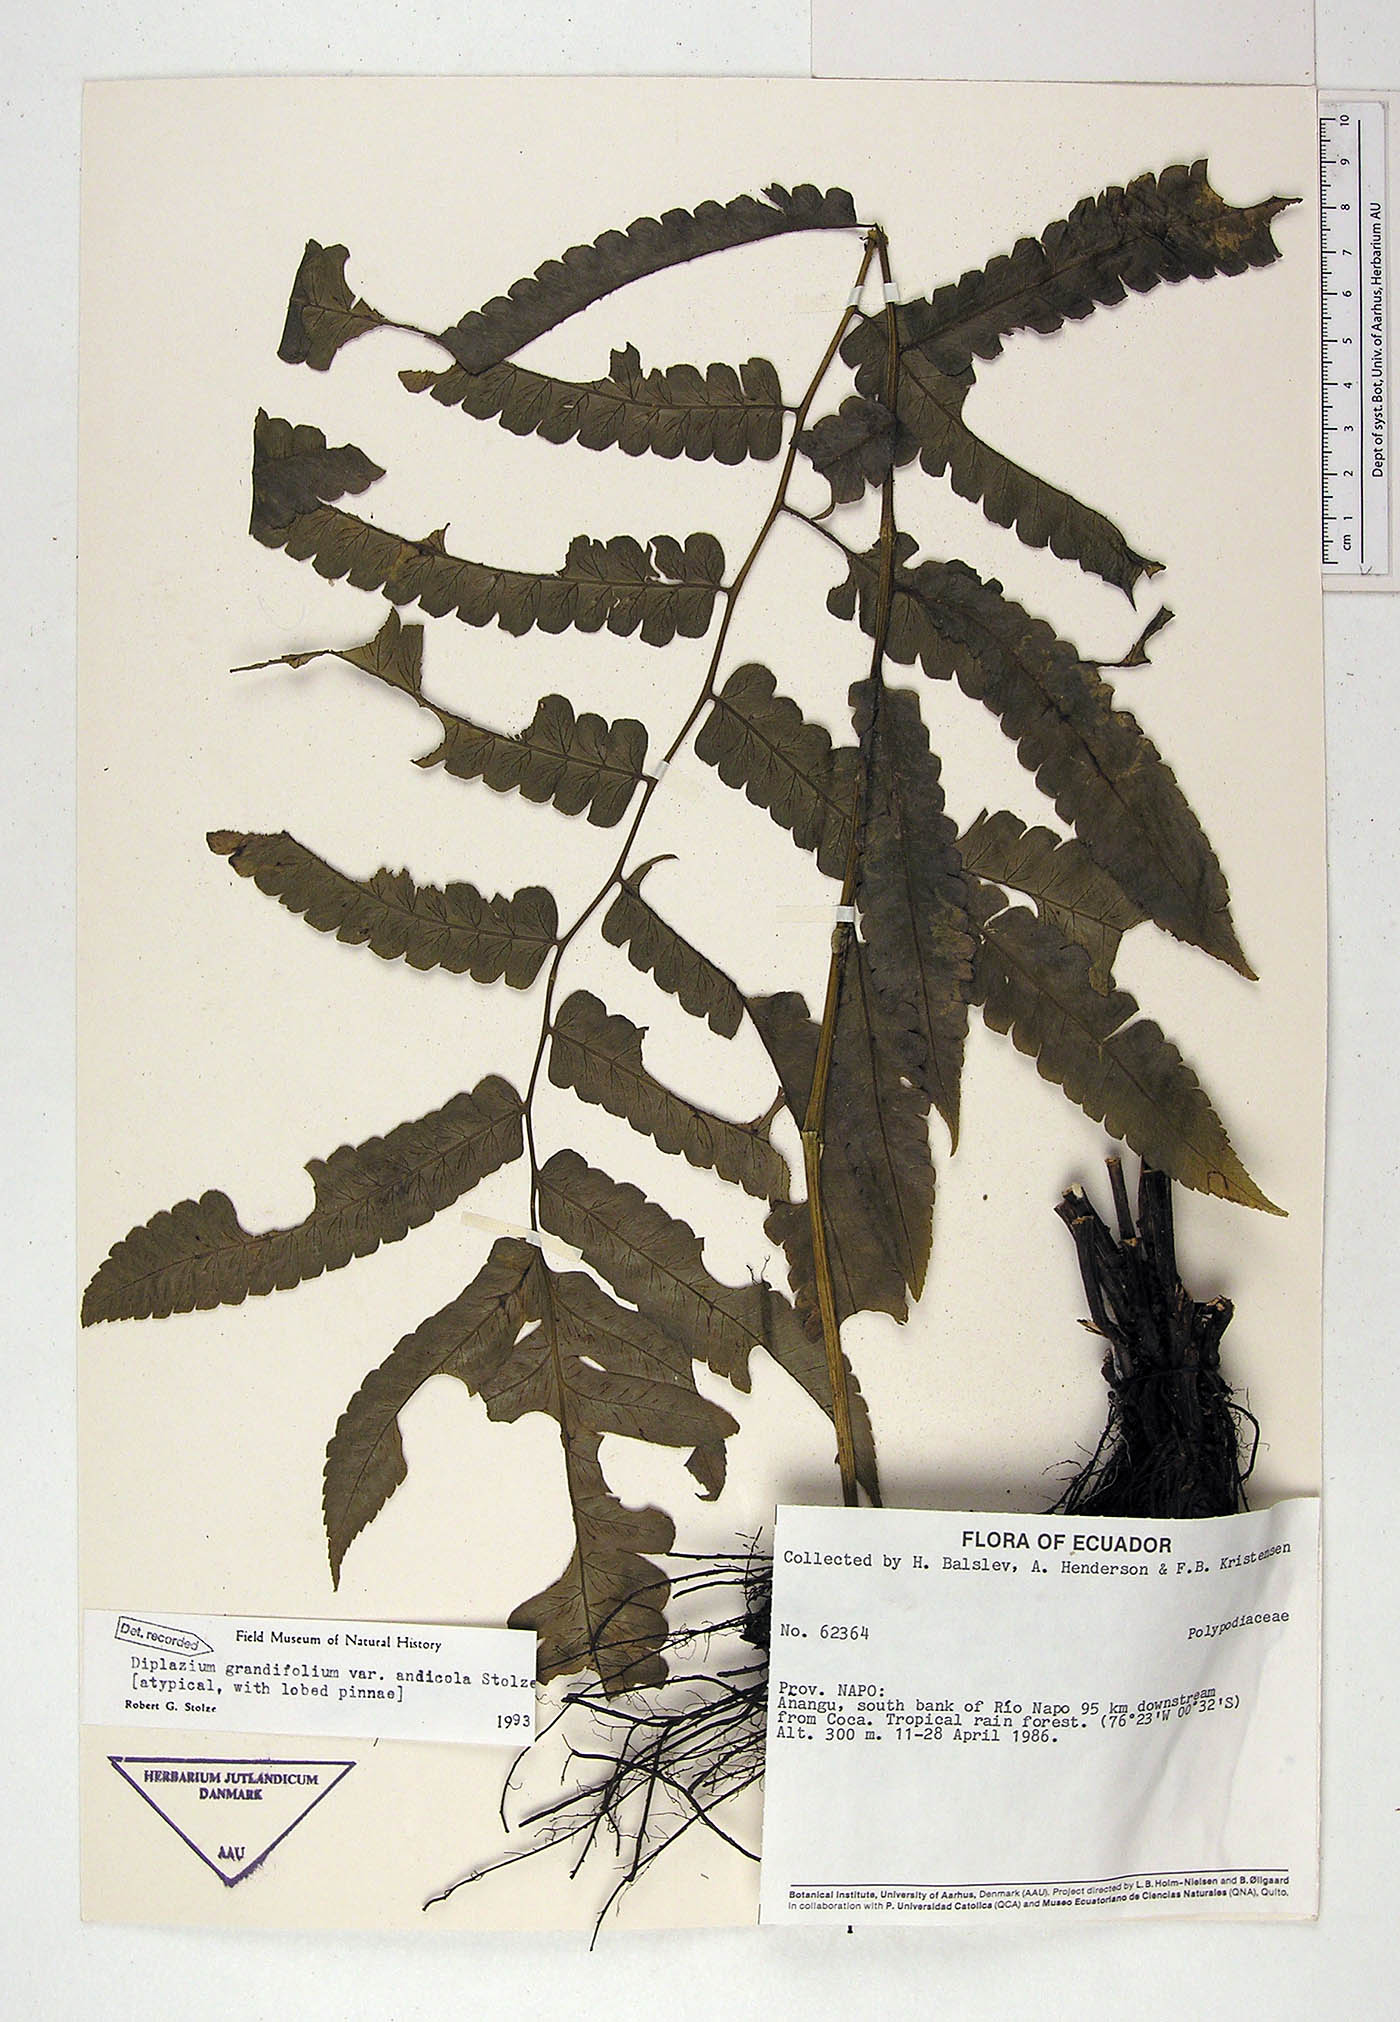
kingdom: Plantae
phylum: Tracheophyta
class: Polypodiopsida
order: Polypodiales
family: Athyriaceae
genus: Diplazium
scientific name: Diplazium grandifolium
